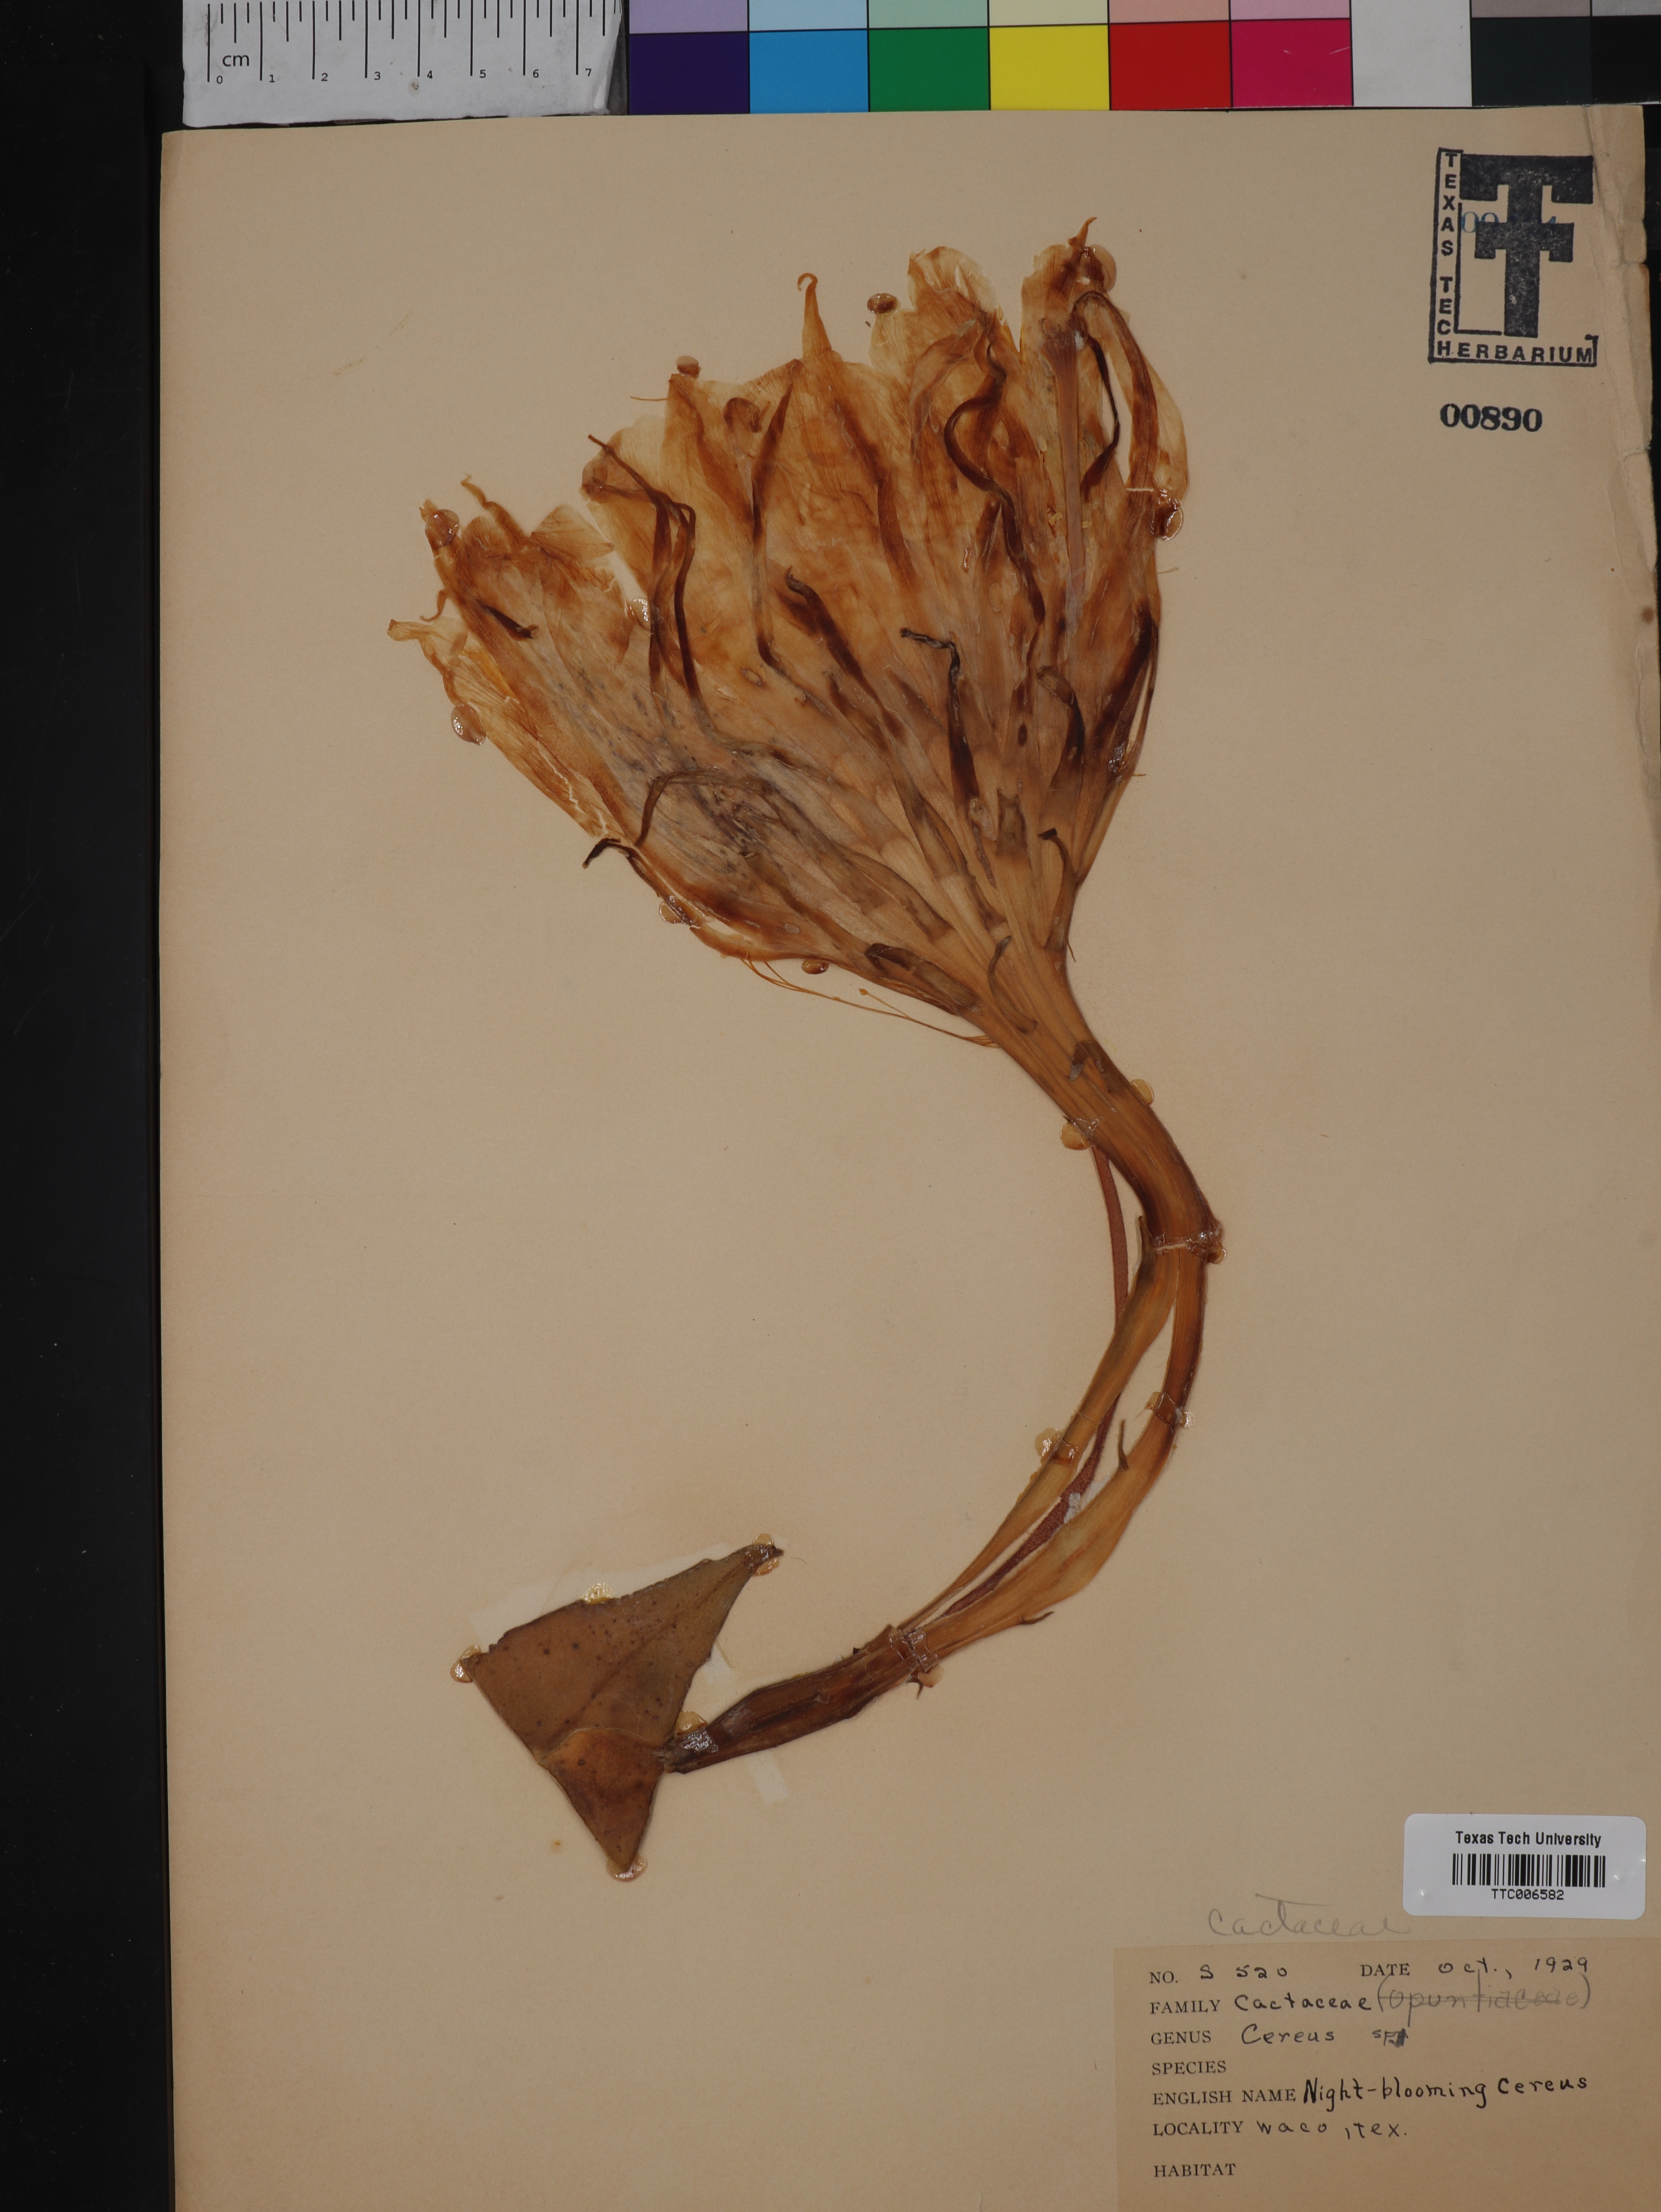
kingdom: Plantae
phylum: Tracheophyta
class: Magnoliopsida
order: Caryophyllales
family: Cactaceae
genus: Cereus
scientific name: Cereus
